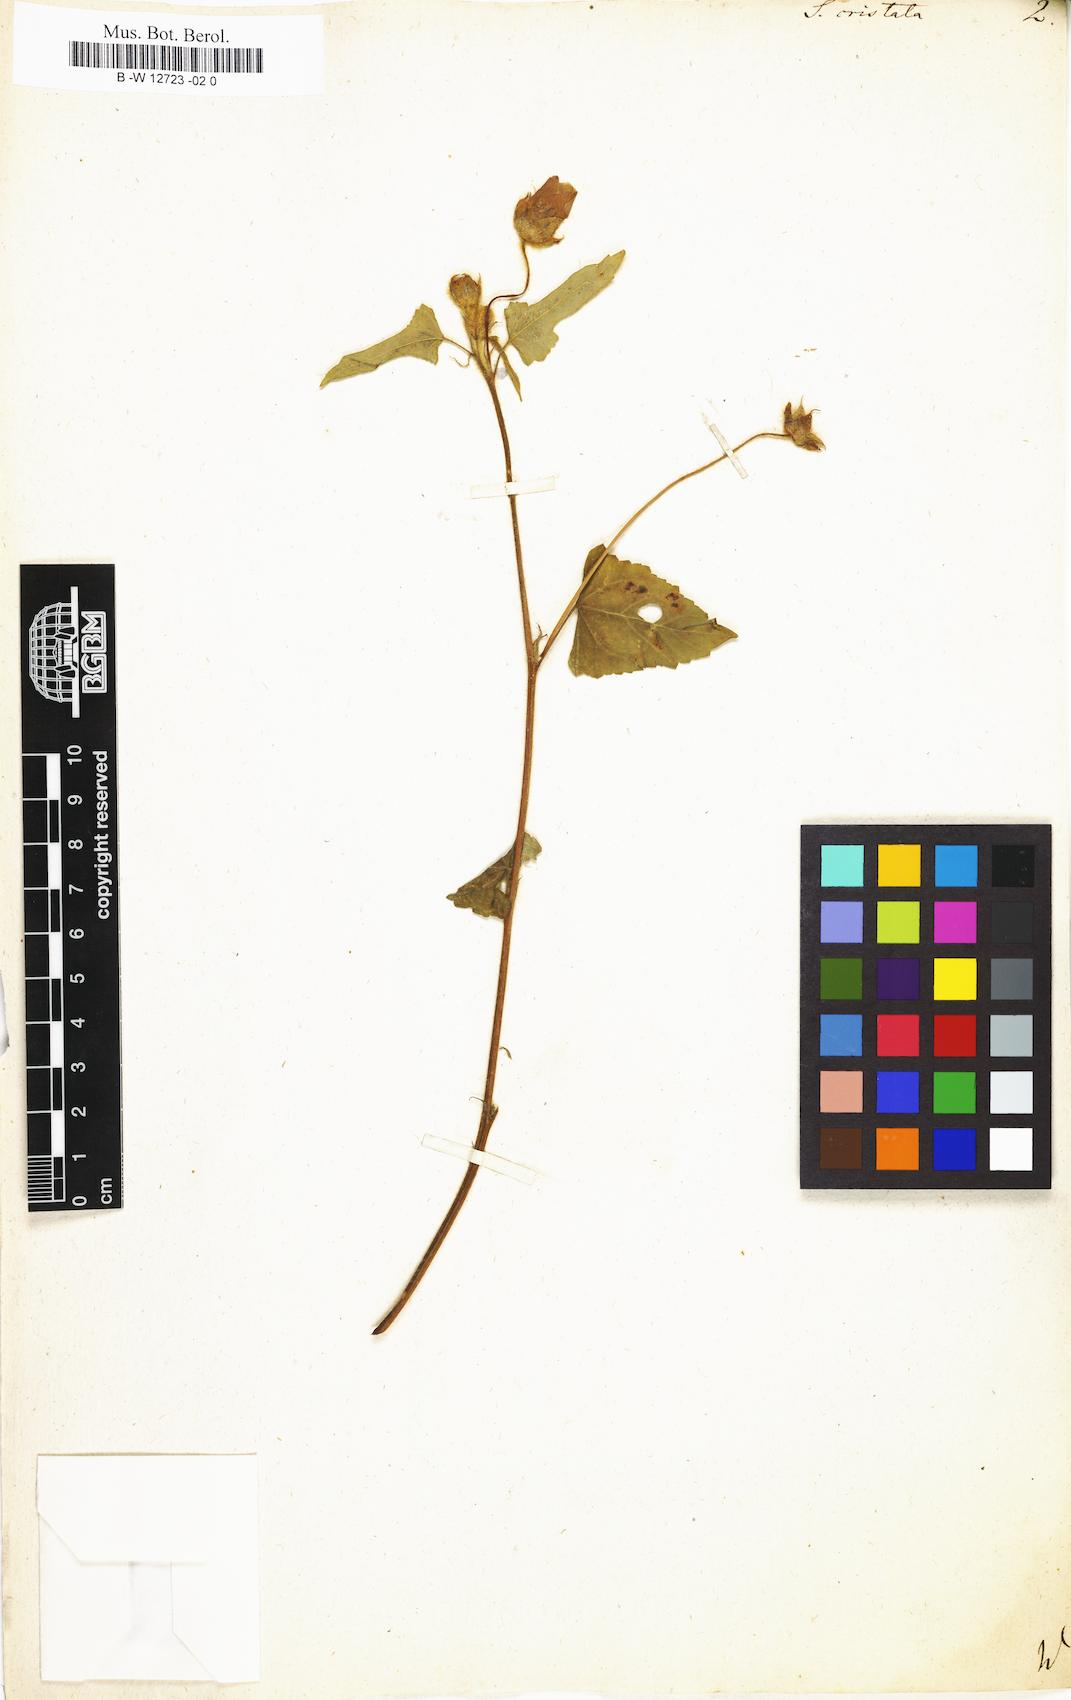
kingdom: Plantae
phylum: Tracheophyta
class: Magnoliopsida
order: Malvales
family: Malvaceae
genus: Anoda
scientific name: Anoda cristata
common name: Spurred anoda
